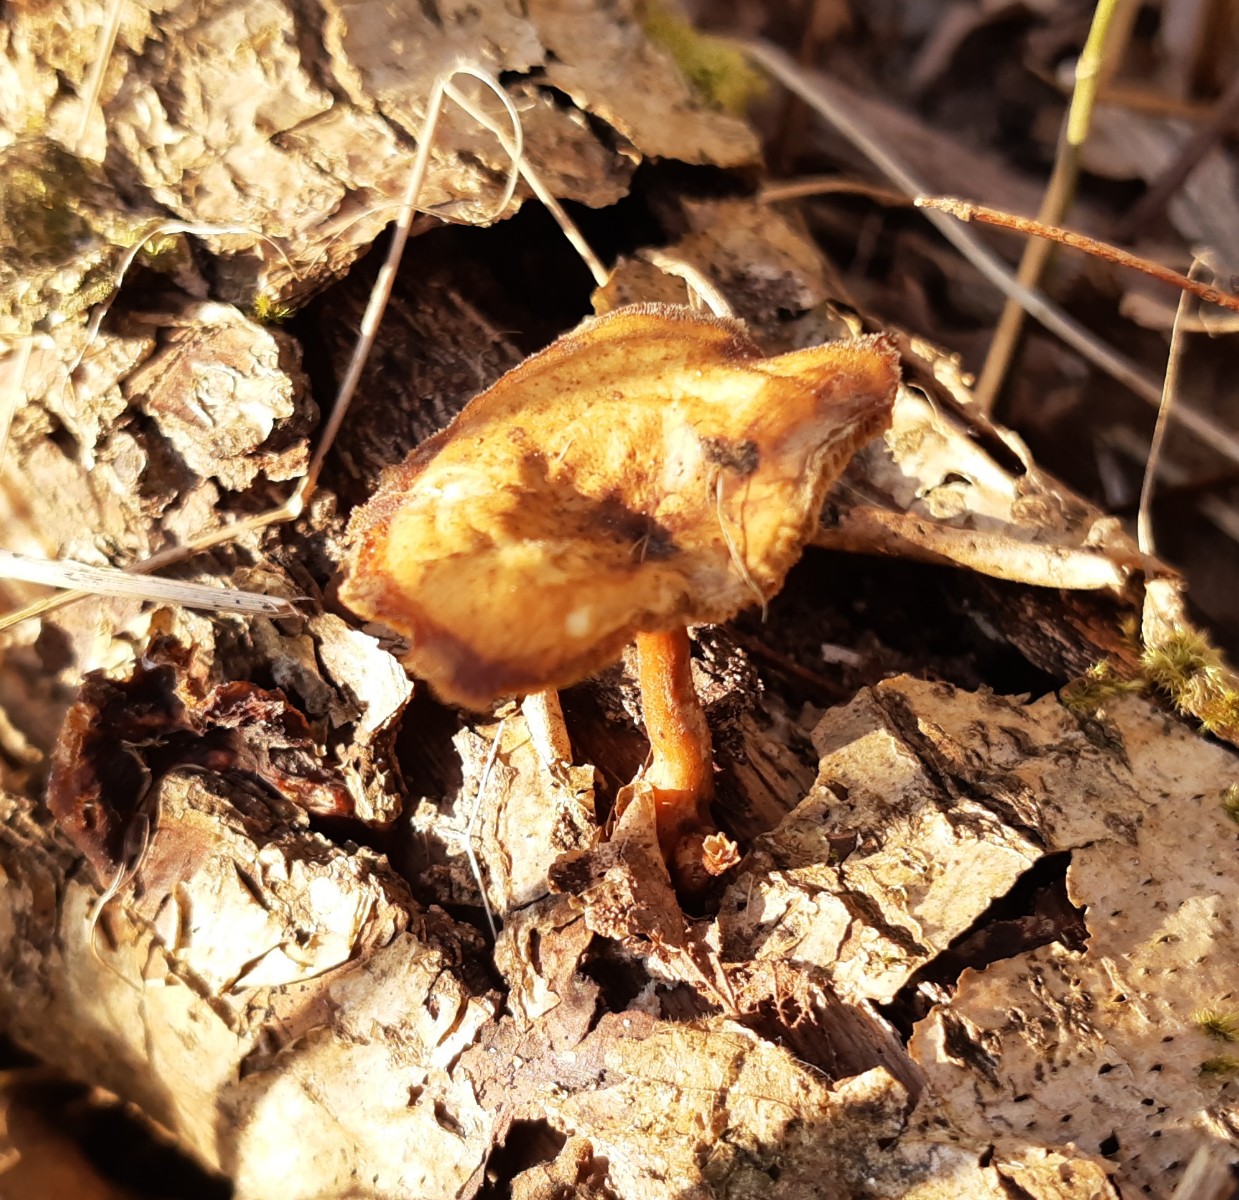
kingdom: Fungi
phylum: Basidiomycota
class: Agaricomycetes
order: Polyporales
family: Polyporaceae
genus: Lentinus
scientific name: Lentinus brumalis
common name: vinter-stilkporesvamp
